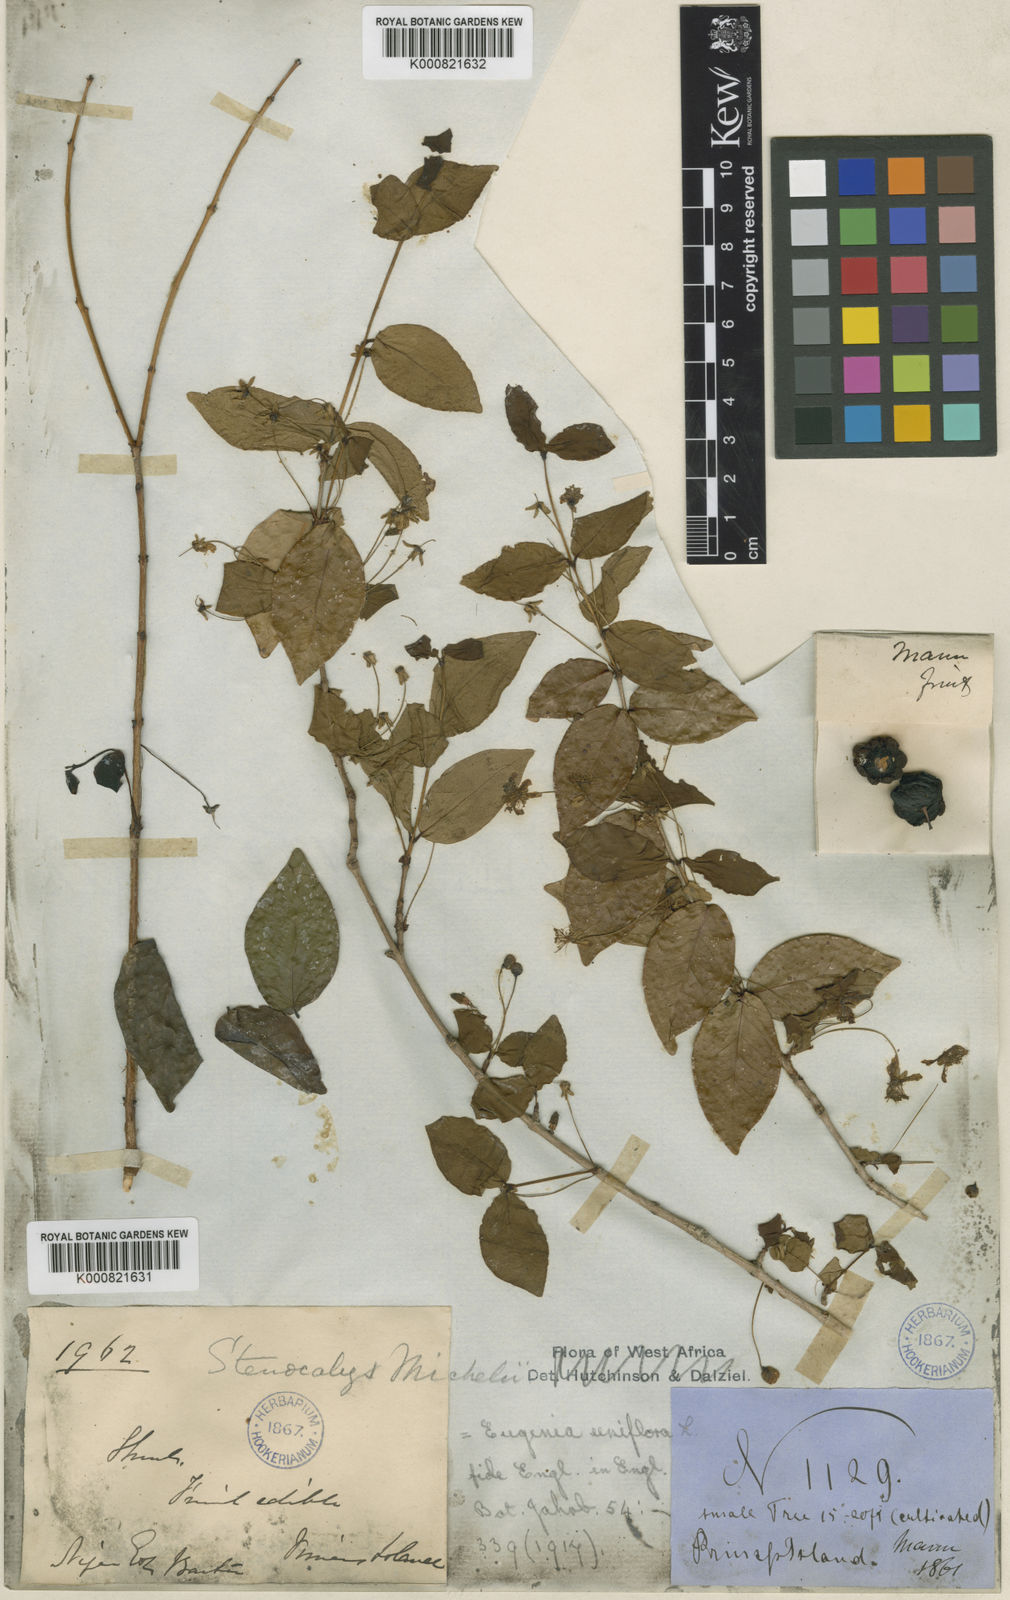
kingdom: Plantae
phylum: Tracheophyta
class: Magnoliopsida
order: Myrtales
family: Myrtaceae
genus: Eugenia
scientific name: Eugenia uniflora
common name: Surinam cherry
